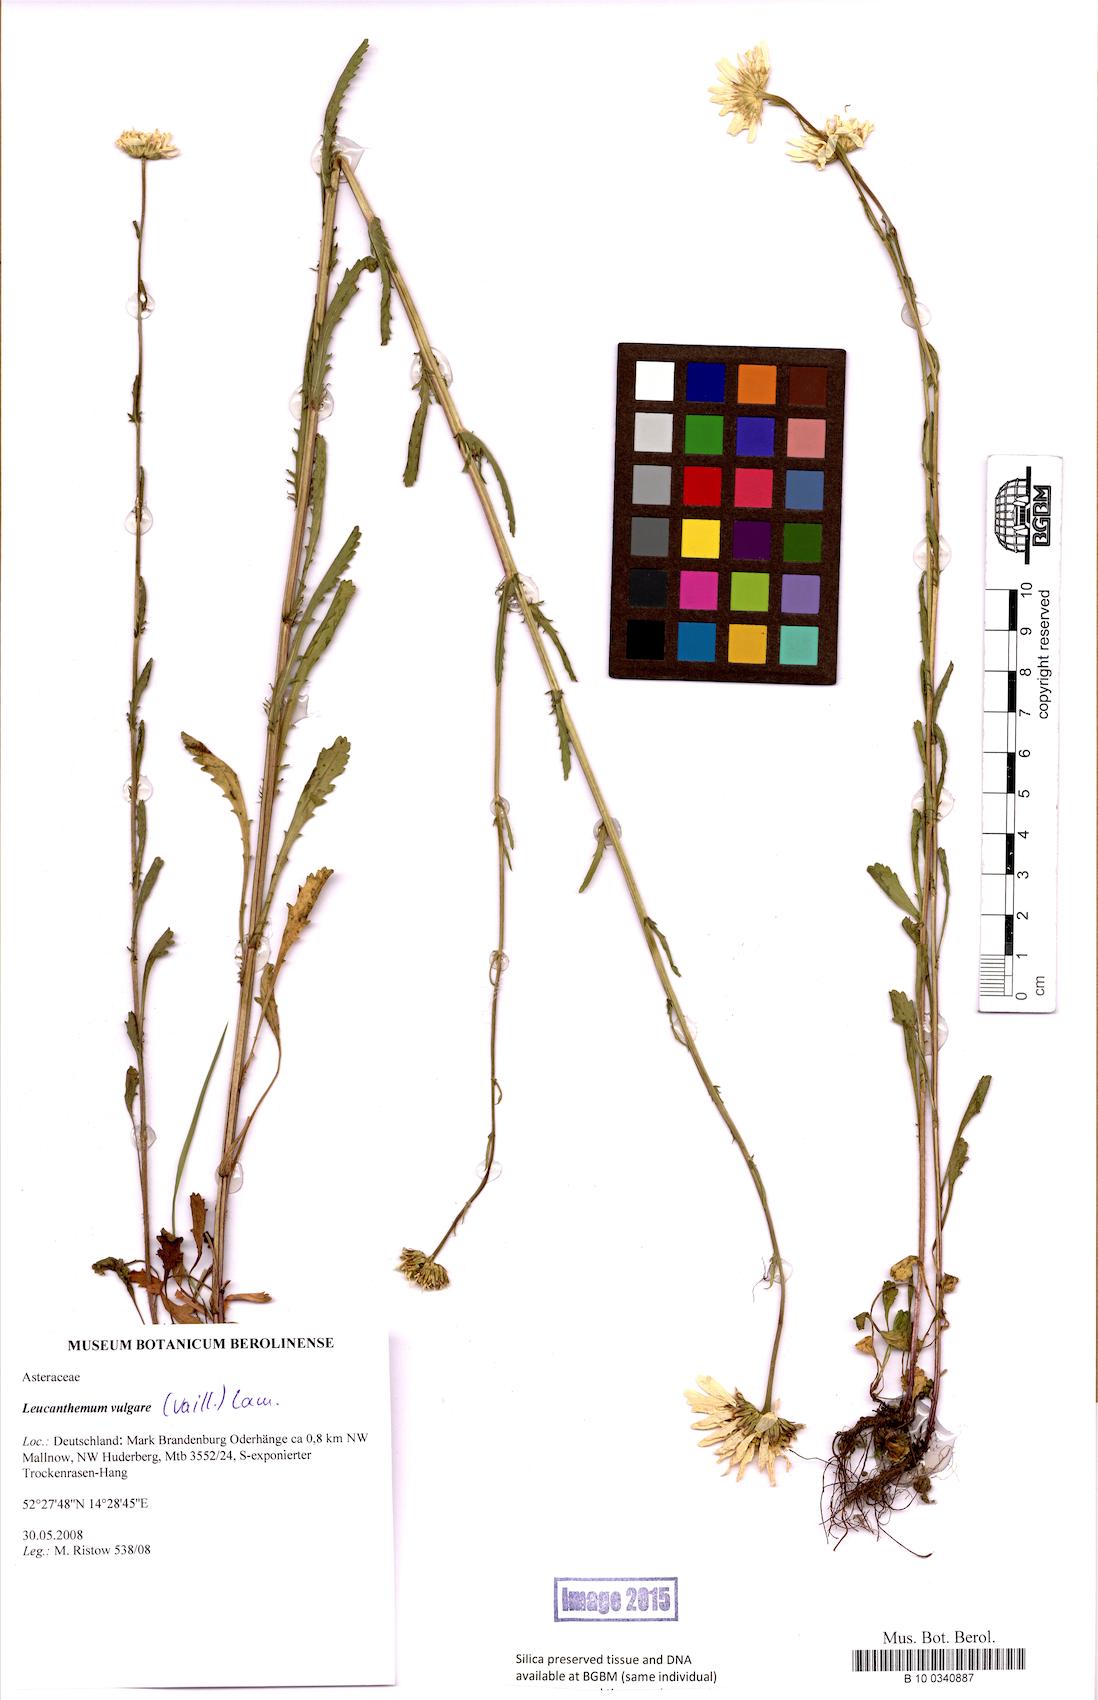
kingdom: Plantae
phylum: Tracheophyta
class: Magnoliopsida
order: Asterales
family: Asteraceae
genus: Leucanthemum
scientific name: Leucanthemum vulgare
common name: Oxeye daisy
